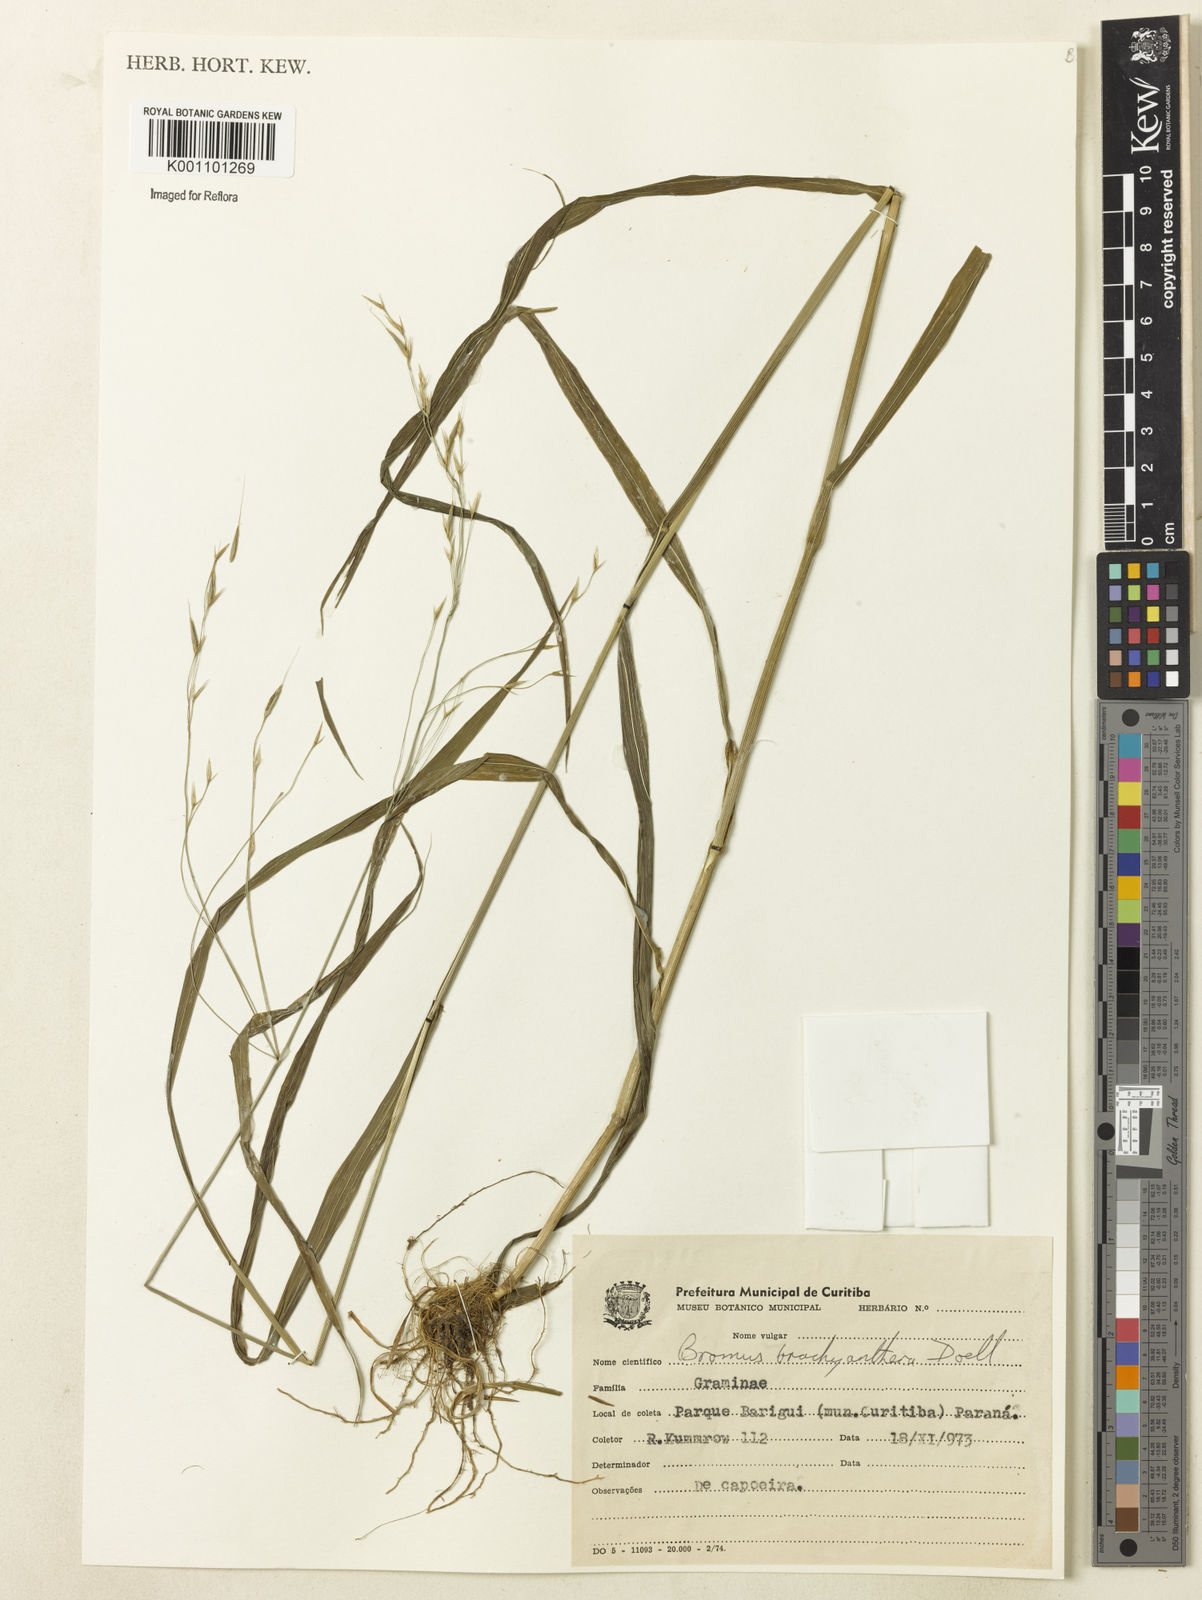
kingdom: Plantae
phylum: Tracheophyta
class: Liliopsida
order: Poales
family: Poaceae
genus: Bromus
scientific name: Bromus
